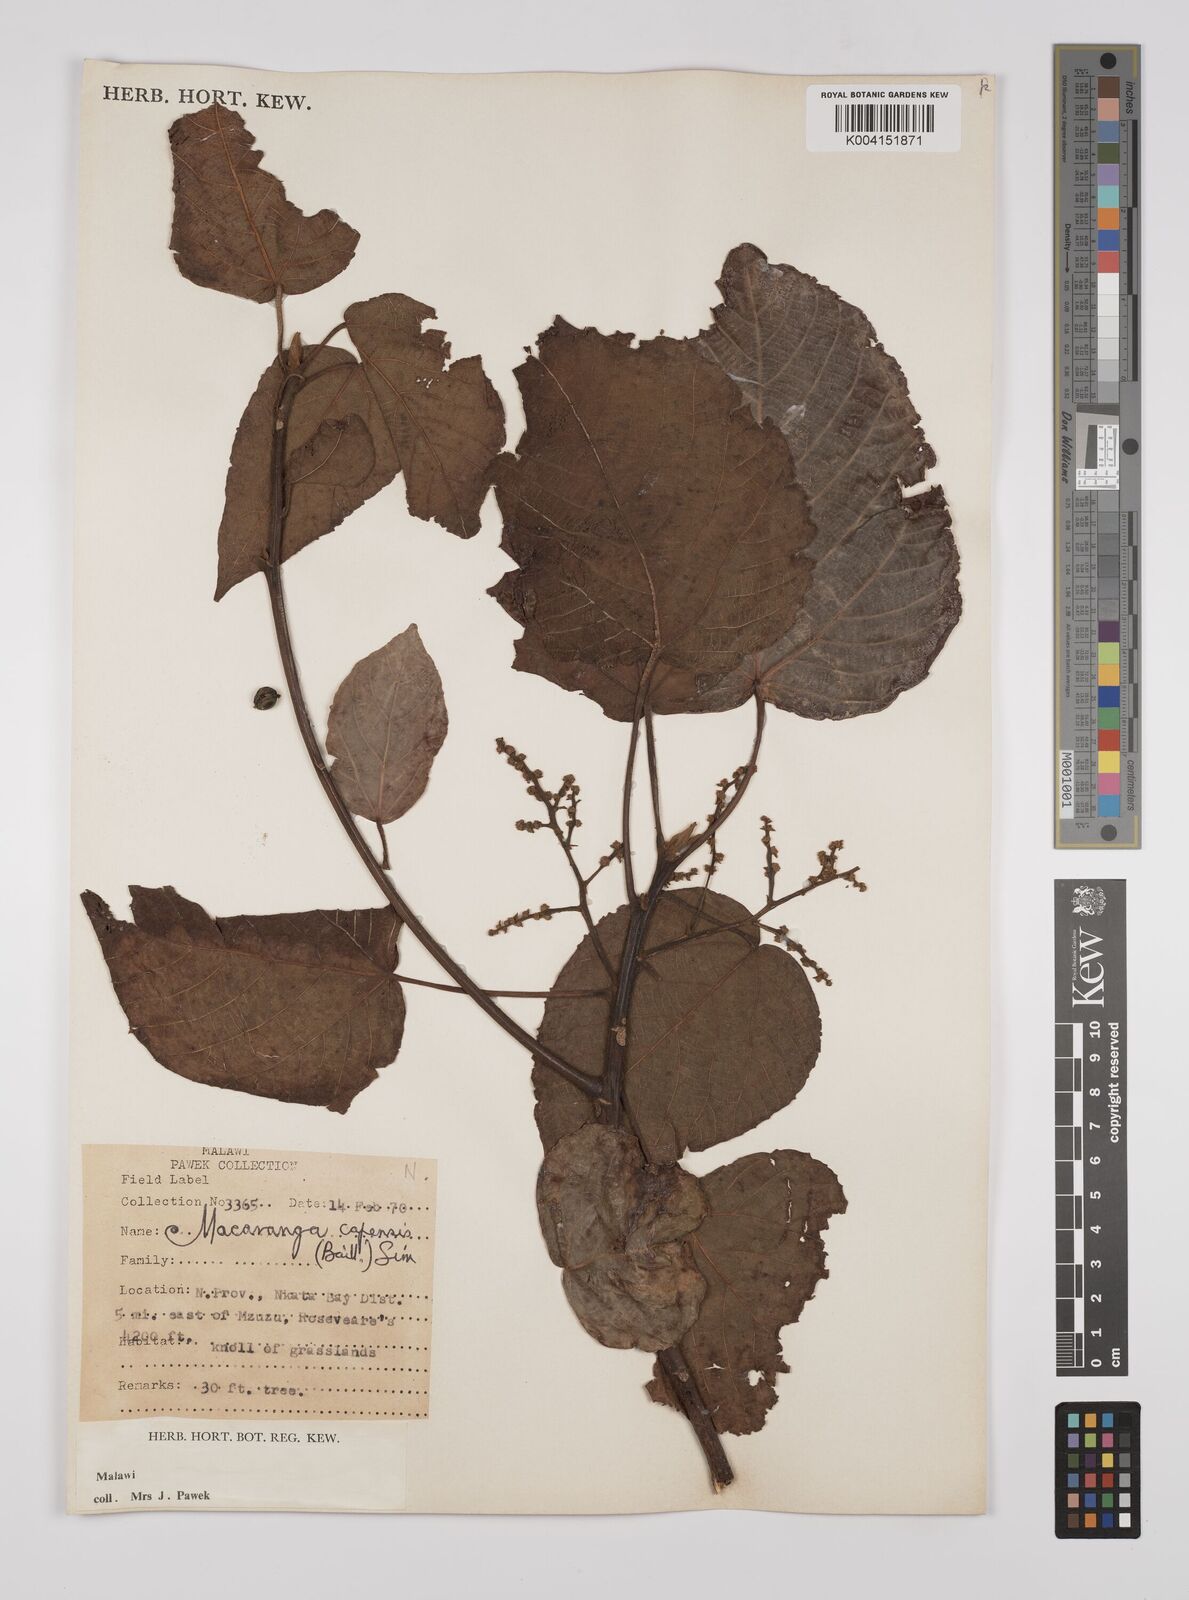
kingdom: Plantae
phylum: Tracheophyta
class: Magnoliopsida
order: Malpighiales
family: Euphorbiaceae
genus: Macaranga
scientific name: Macaranga capensis
